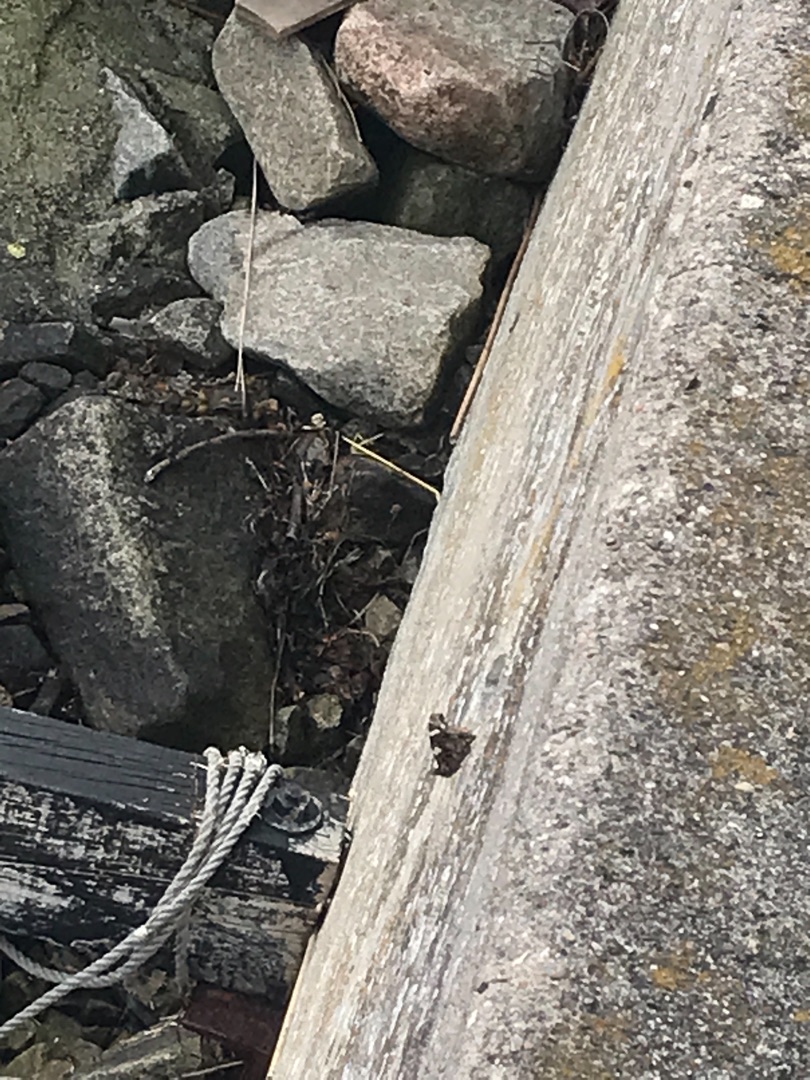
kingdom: Animalia
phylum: Arthropoda
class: Insecta
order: Lepidoptera
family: Nymphalidae
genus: Vanessa
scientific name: Vanessa atalanta
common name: Admiral
